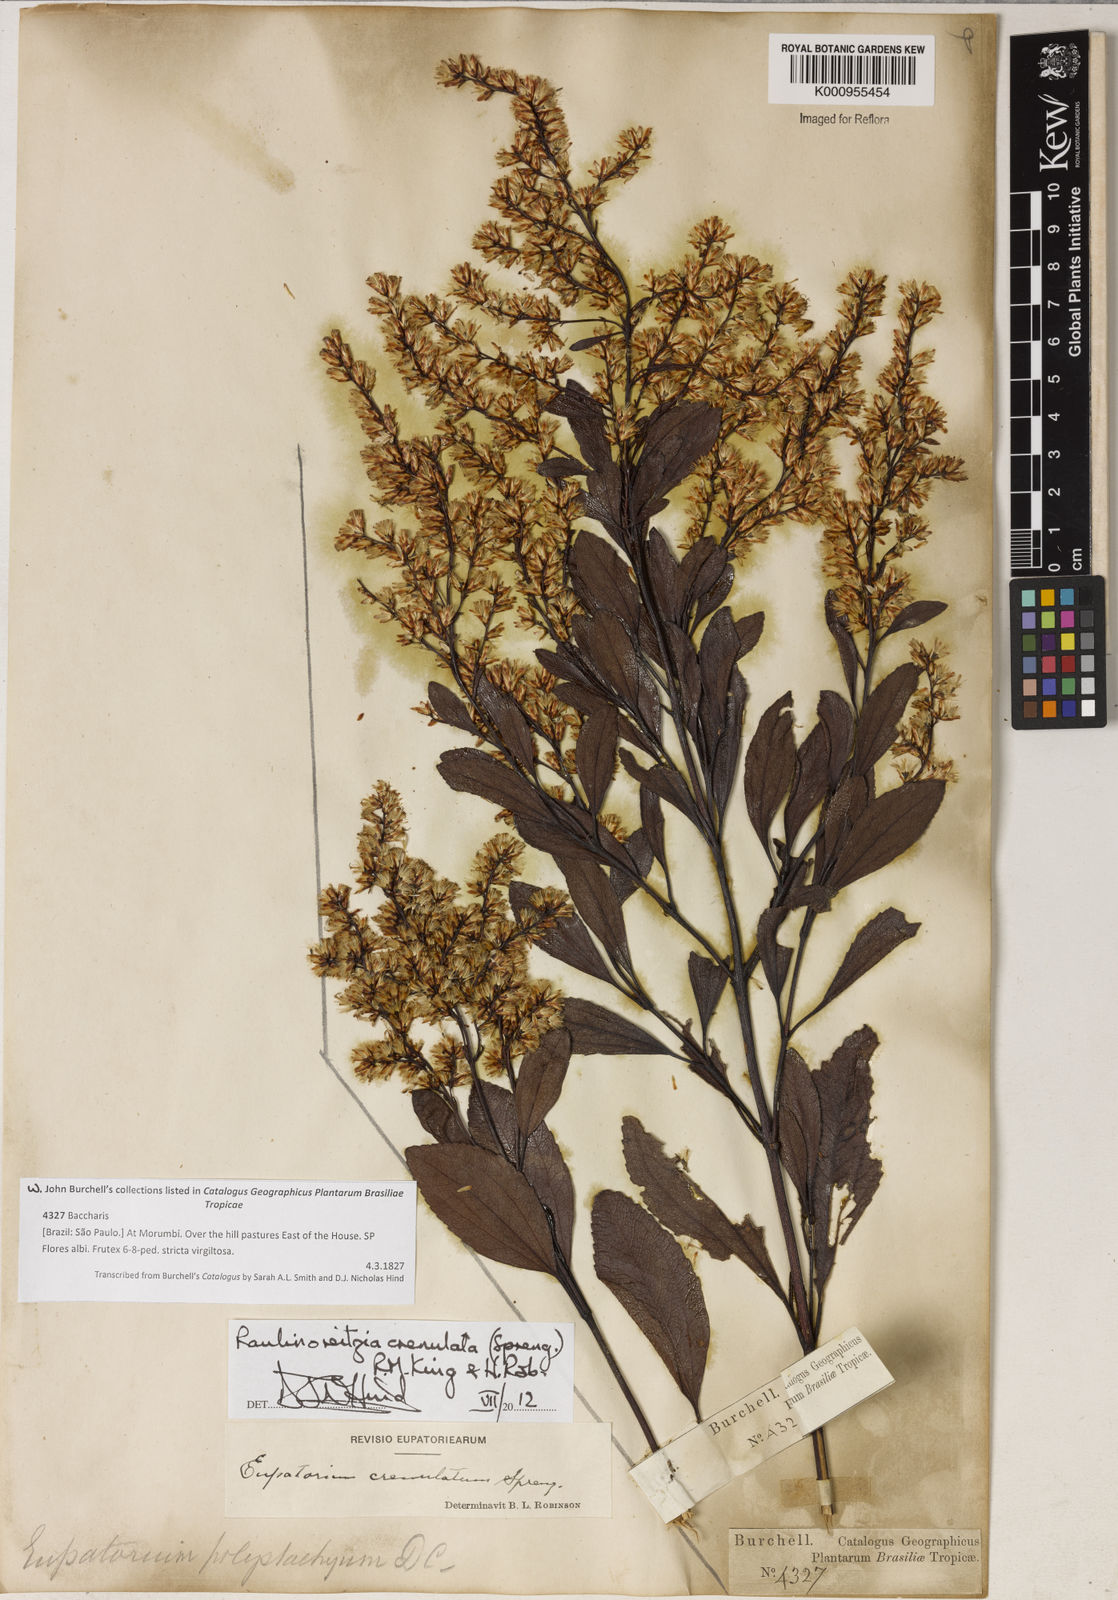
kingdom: Plantae
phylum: Tracheophyta
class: Magnoliopsida
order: Asterales
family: Asteraceae
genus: Raulinoreitzia
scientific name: Raulinoreitzia crenulata
